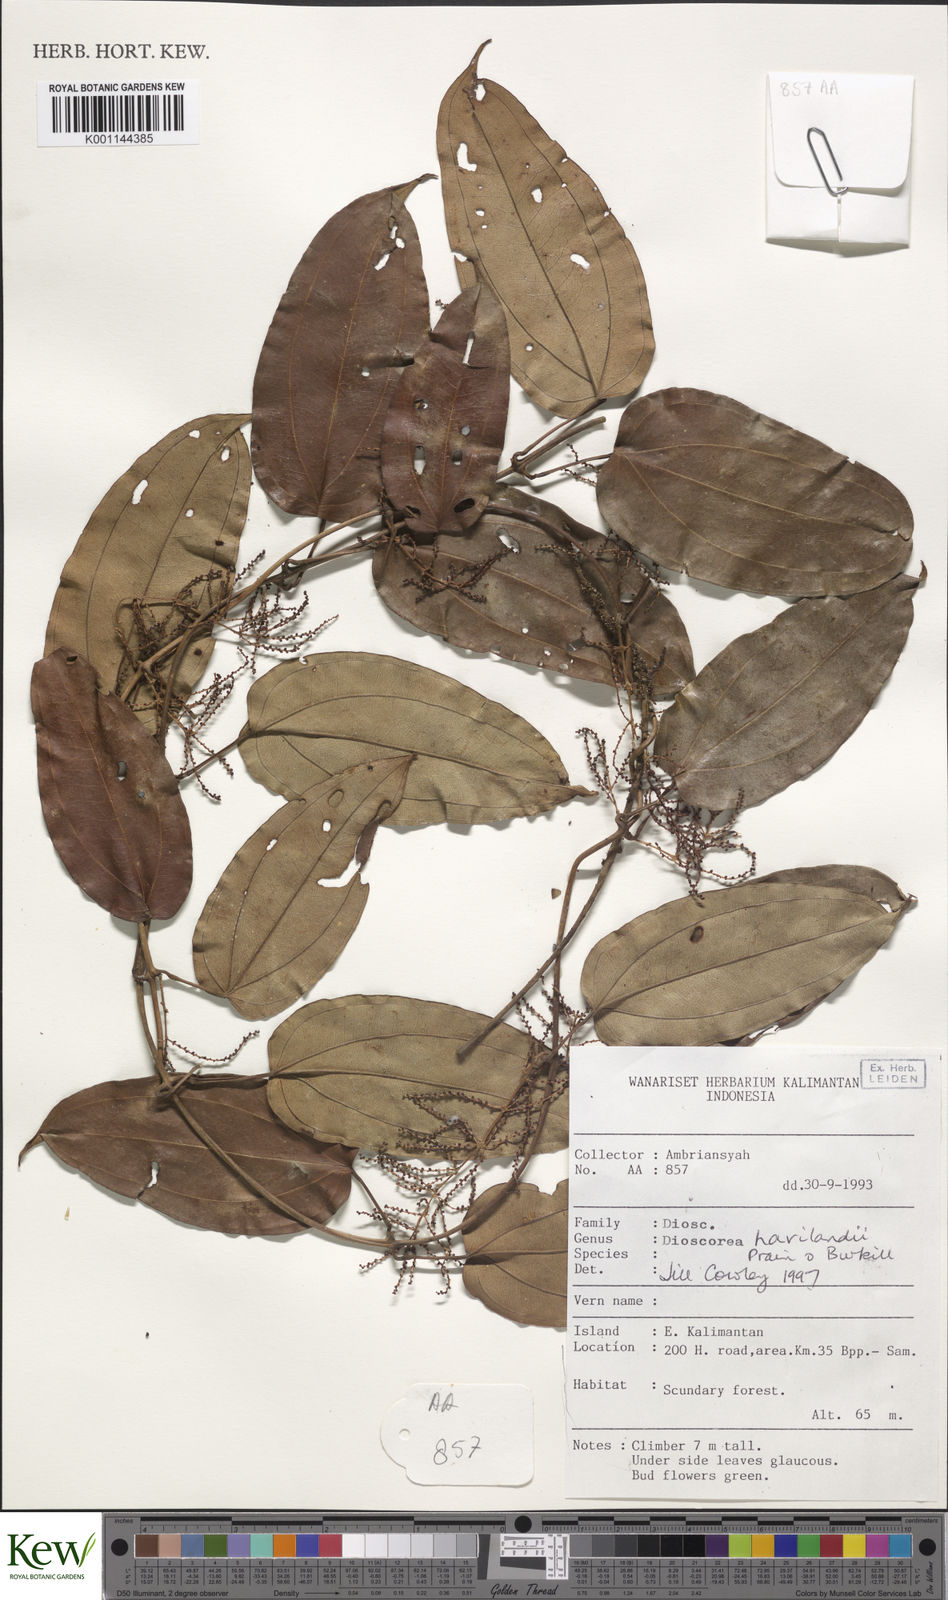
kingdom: Plantae
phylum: Tracheophyta
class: Liliopsida
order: Dioscoreales
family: Dioscoreaceae
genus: Dioscorea
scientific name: Dioscorea havilandii
